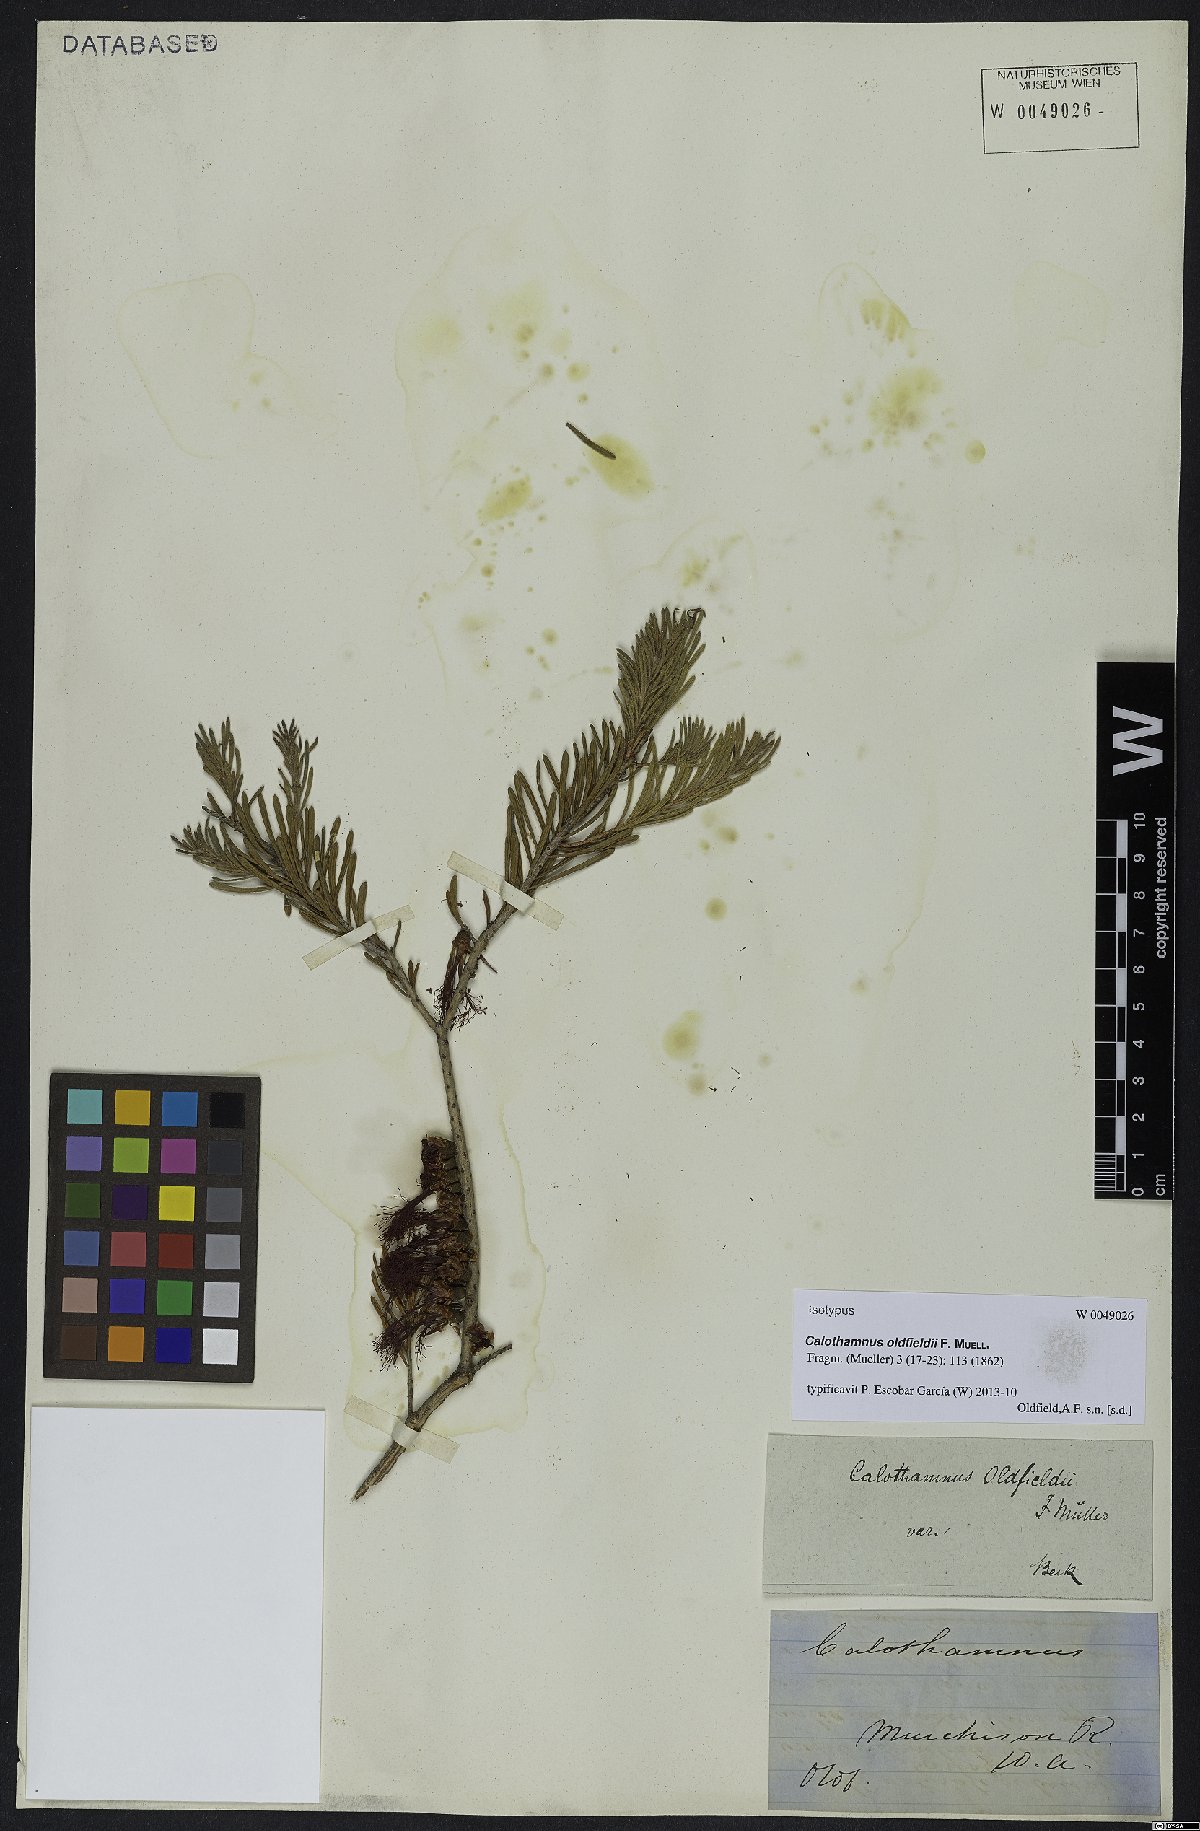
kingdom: Plantae
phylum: Tracheophyta
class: Magnoliopsida
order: Myrtales
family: Myrtaceae
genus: Melaleuca
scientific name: Melaleuca augusti-oldfieldii
